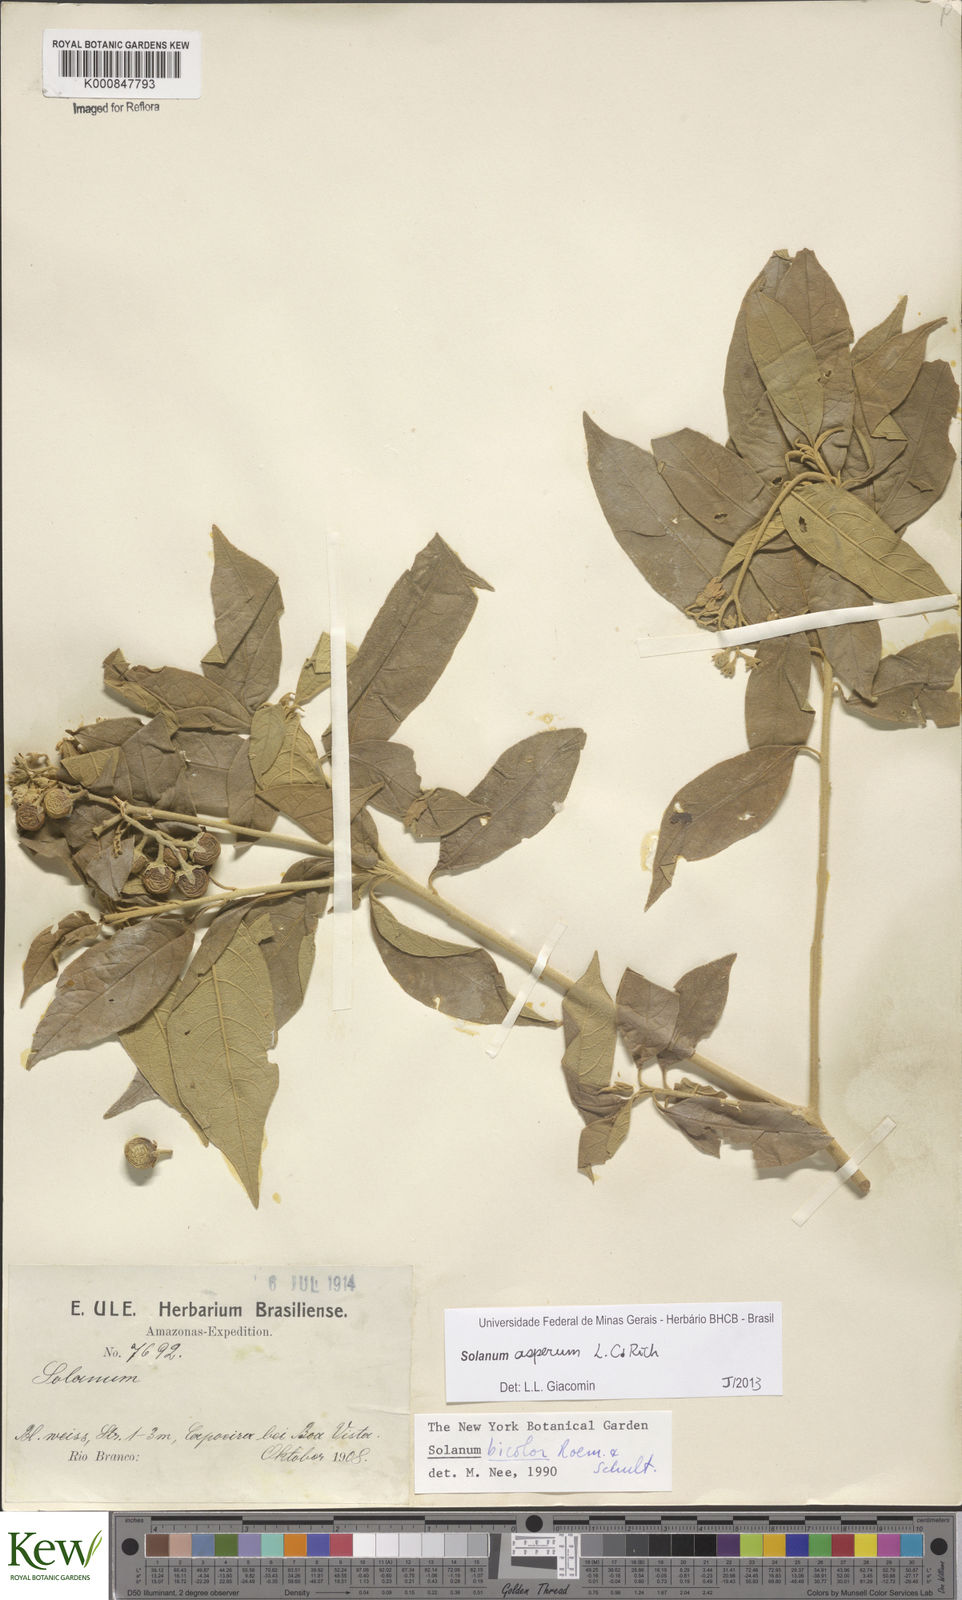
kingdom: Plantae
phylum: Tracheophyta
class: Magnoliopsida
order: Solanales
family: Solanaceae
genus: Solanum
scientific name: Solanum asperum
